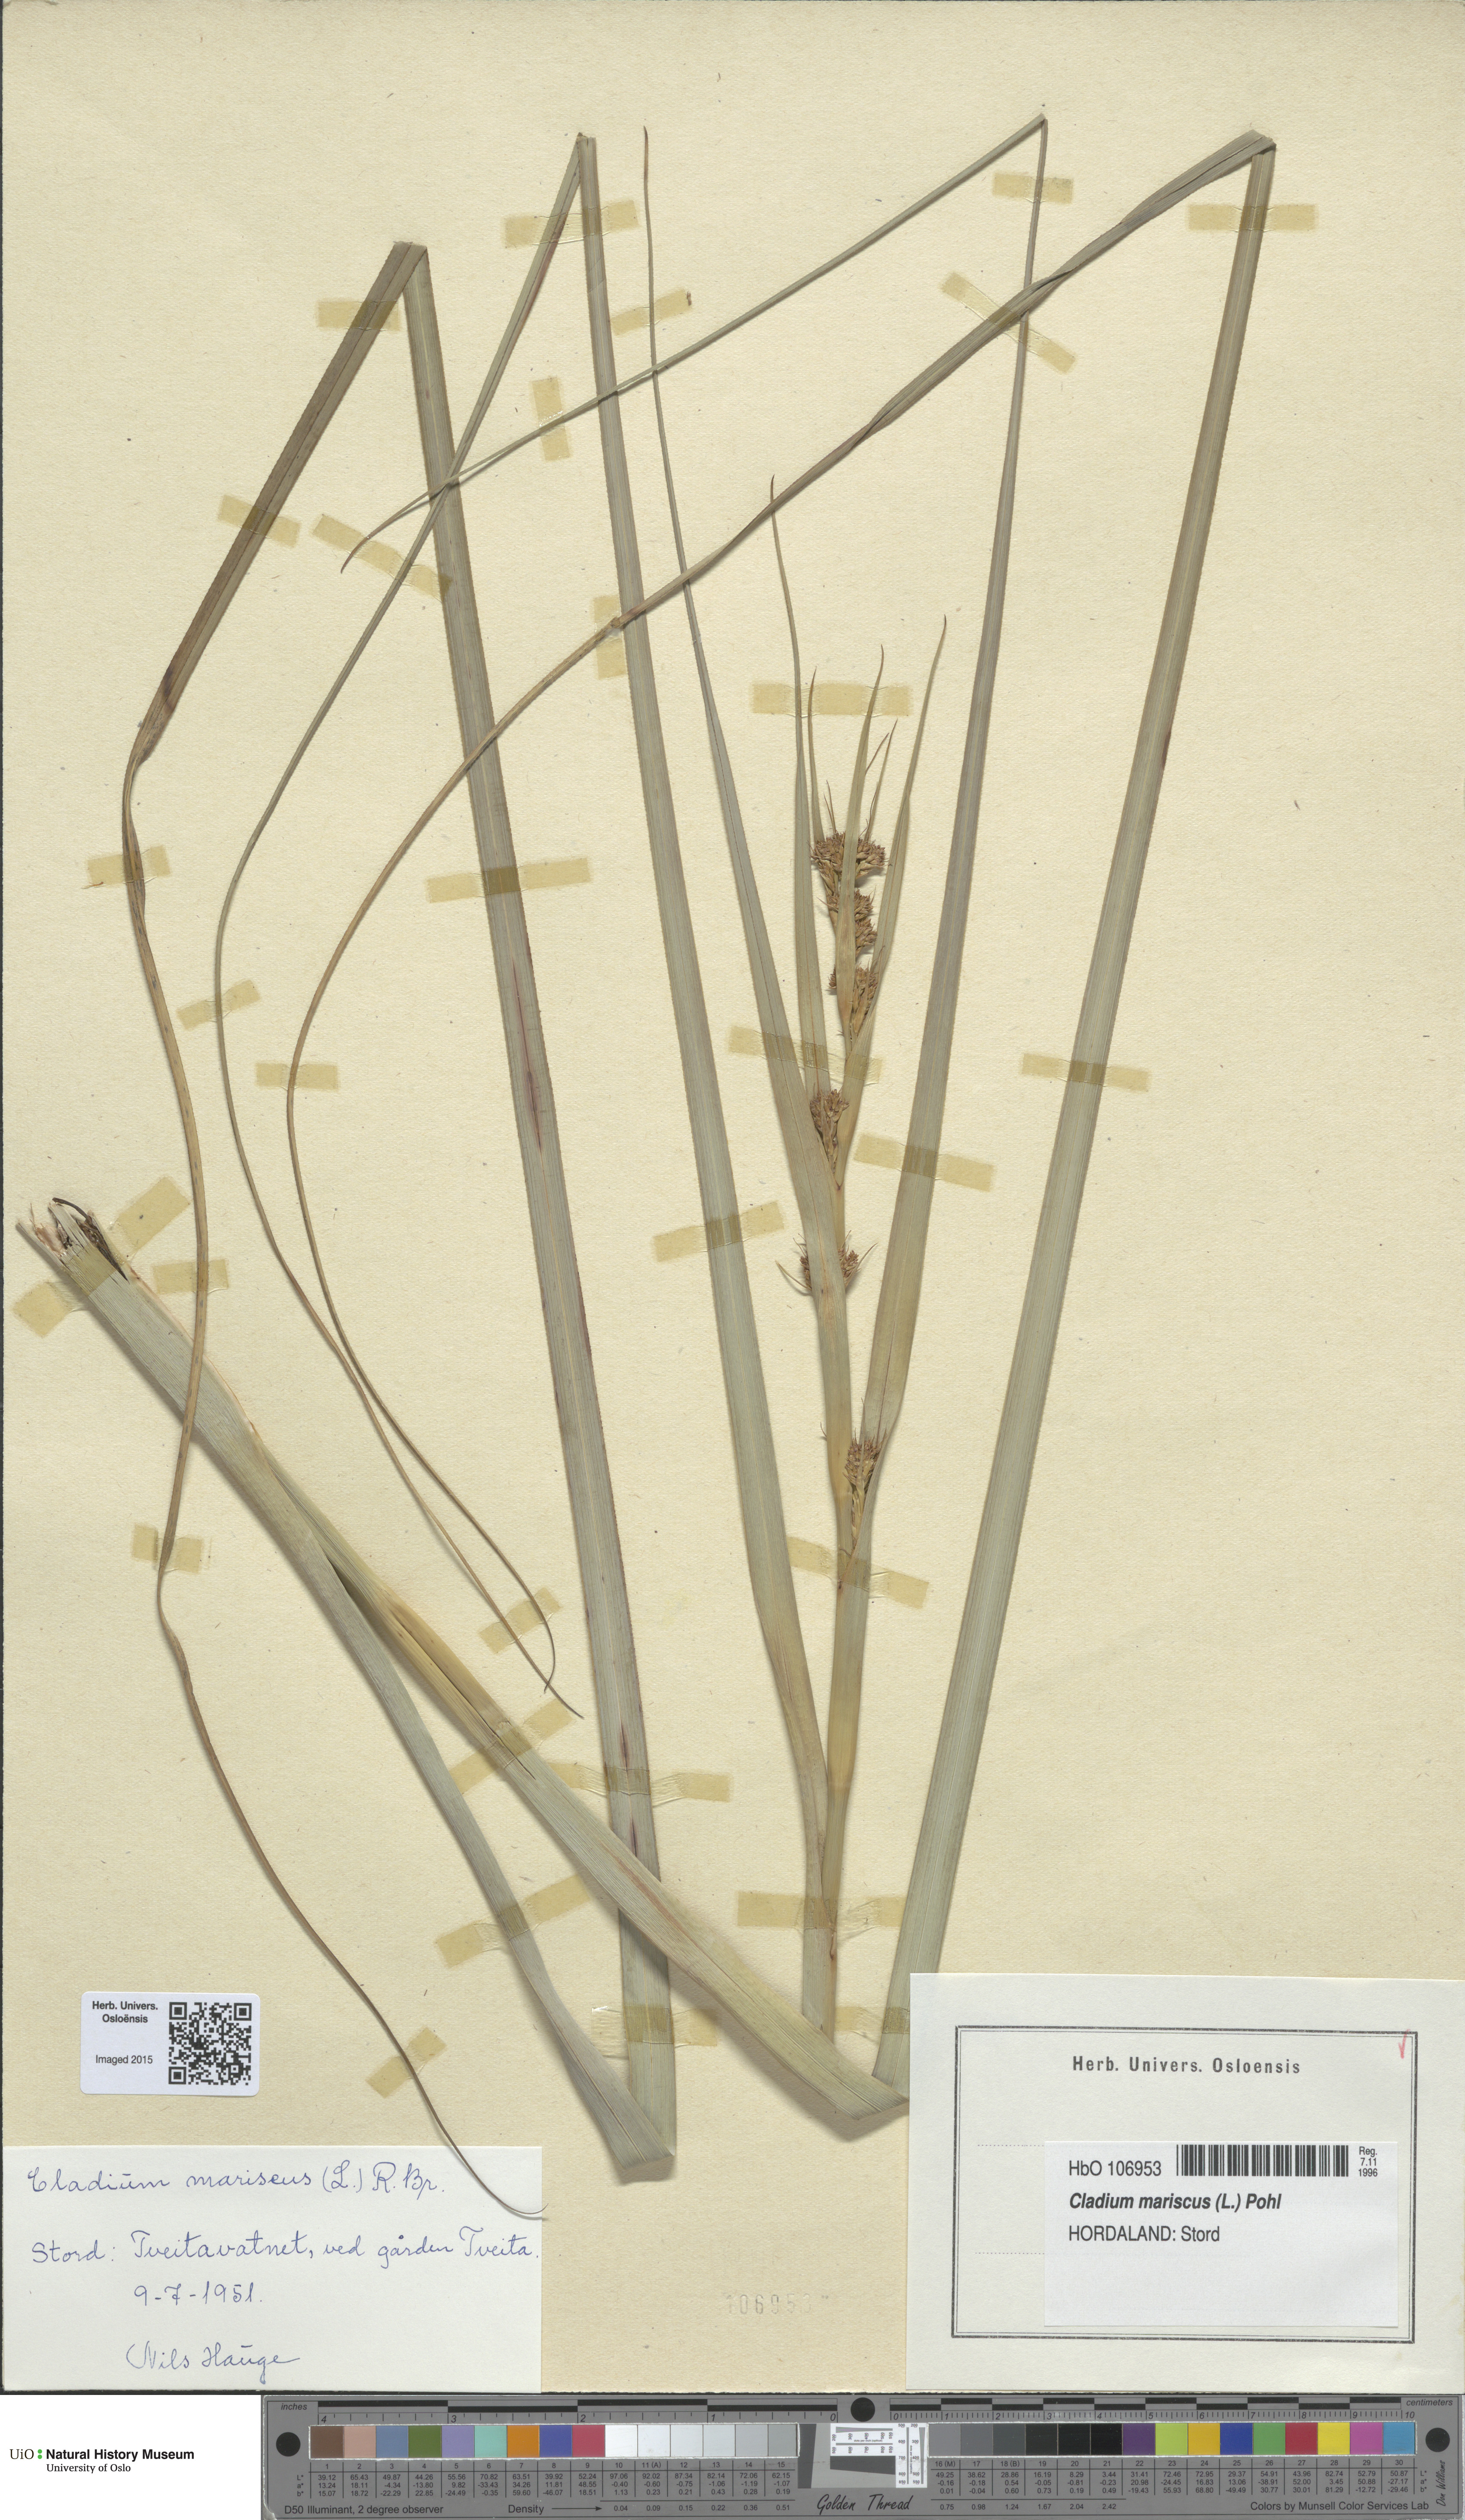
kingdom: Plantae
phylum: Tracheophyta
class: Liliopsida
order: Poales
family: Cyperaceae
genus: Cladium
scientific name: Cladium mariscus
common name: Great fen-sedge
